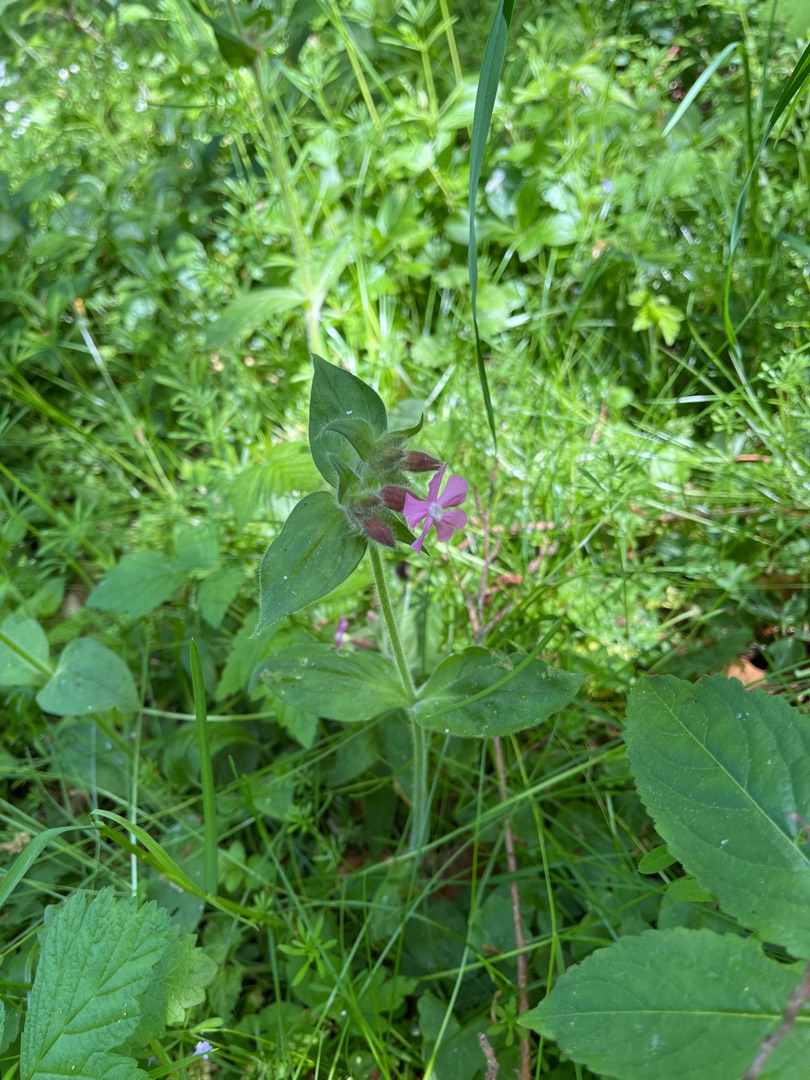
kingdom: Plantae
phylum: Tracheophyta
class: Magnoliopsida
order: Caryophyllales
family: Caryophyllaceae
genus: Silene
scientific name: Silene dioica
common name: Dagpragtstjerne
